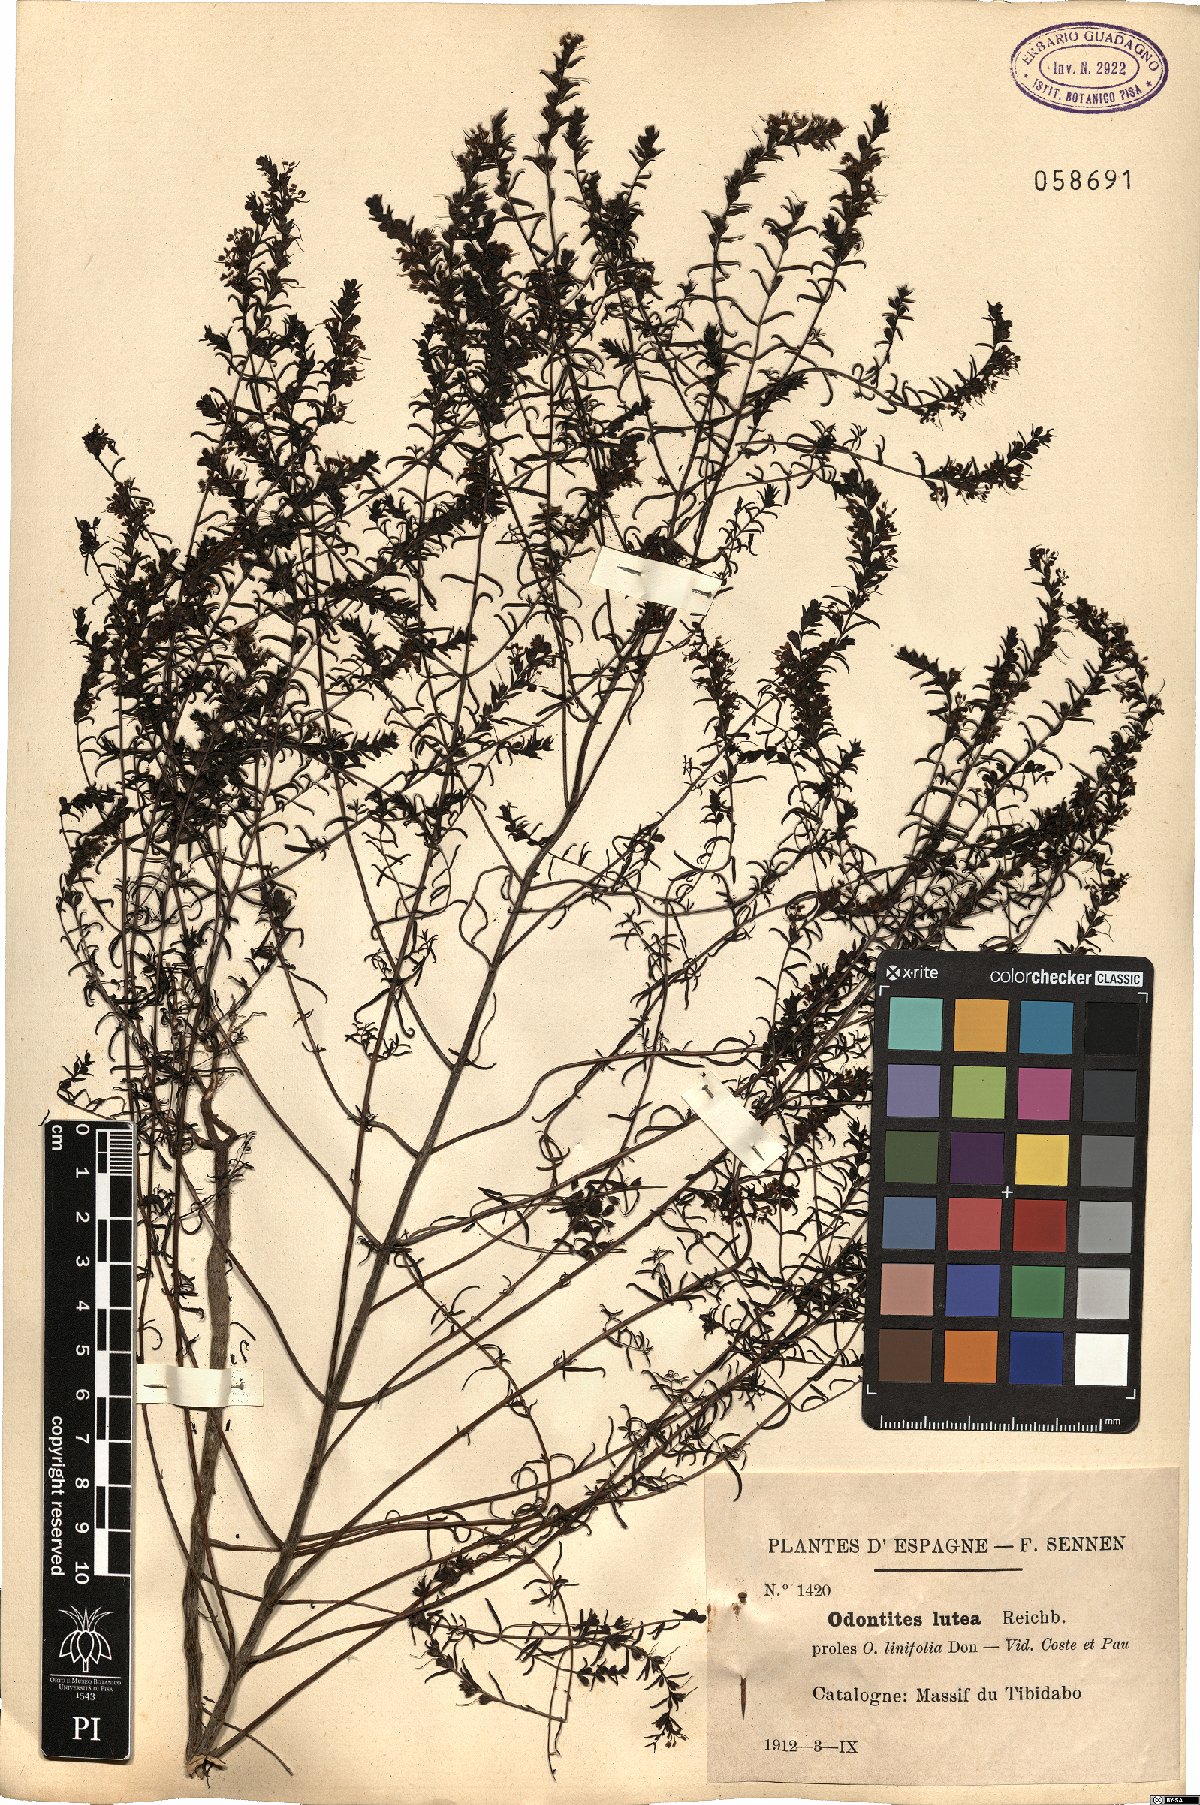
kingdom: Plantae
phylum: Tracheophyta
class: Magnoliopsida
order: Lamiales
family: Orobanchaceae
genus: Odontites
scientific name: Odontites luteus
